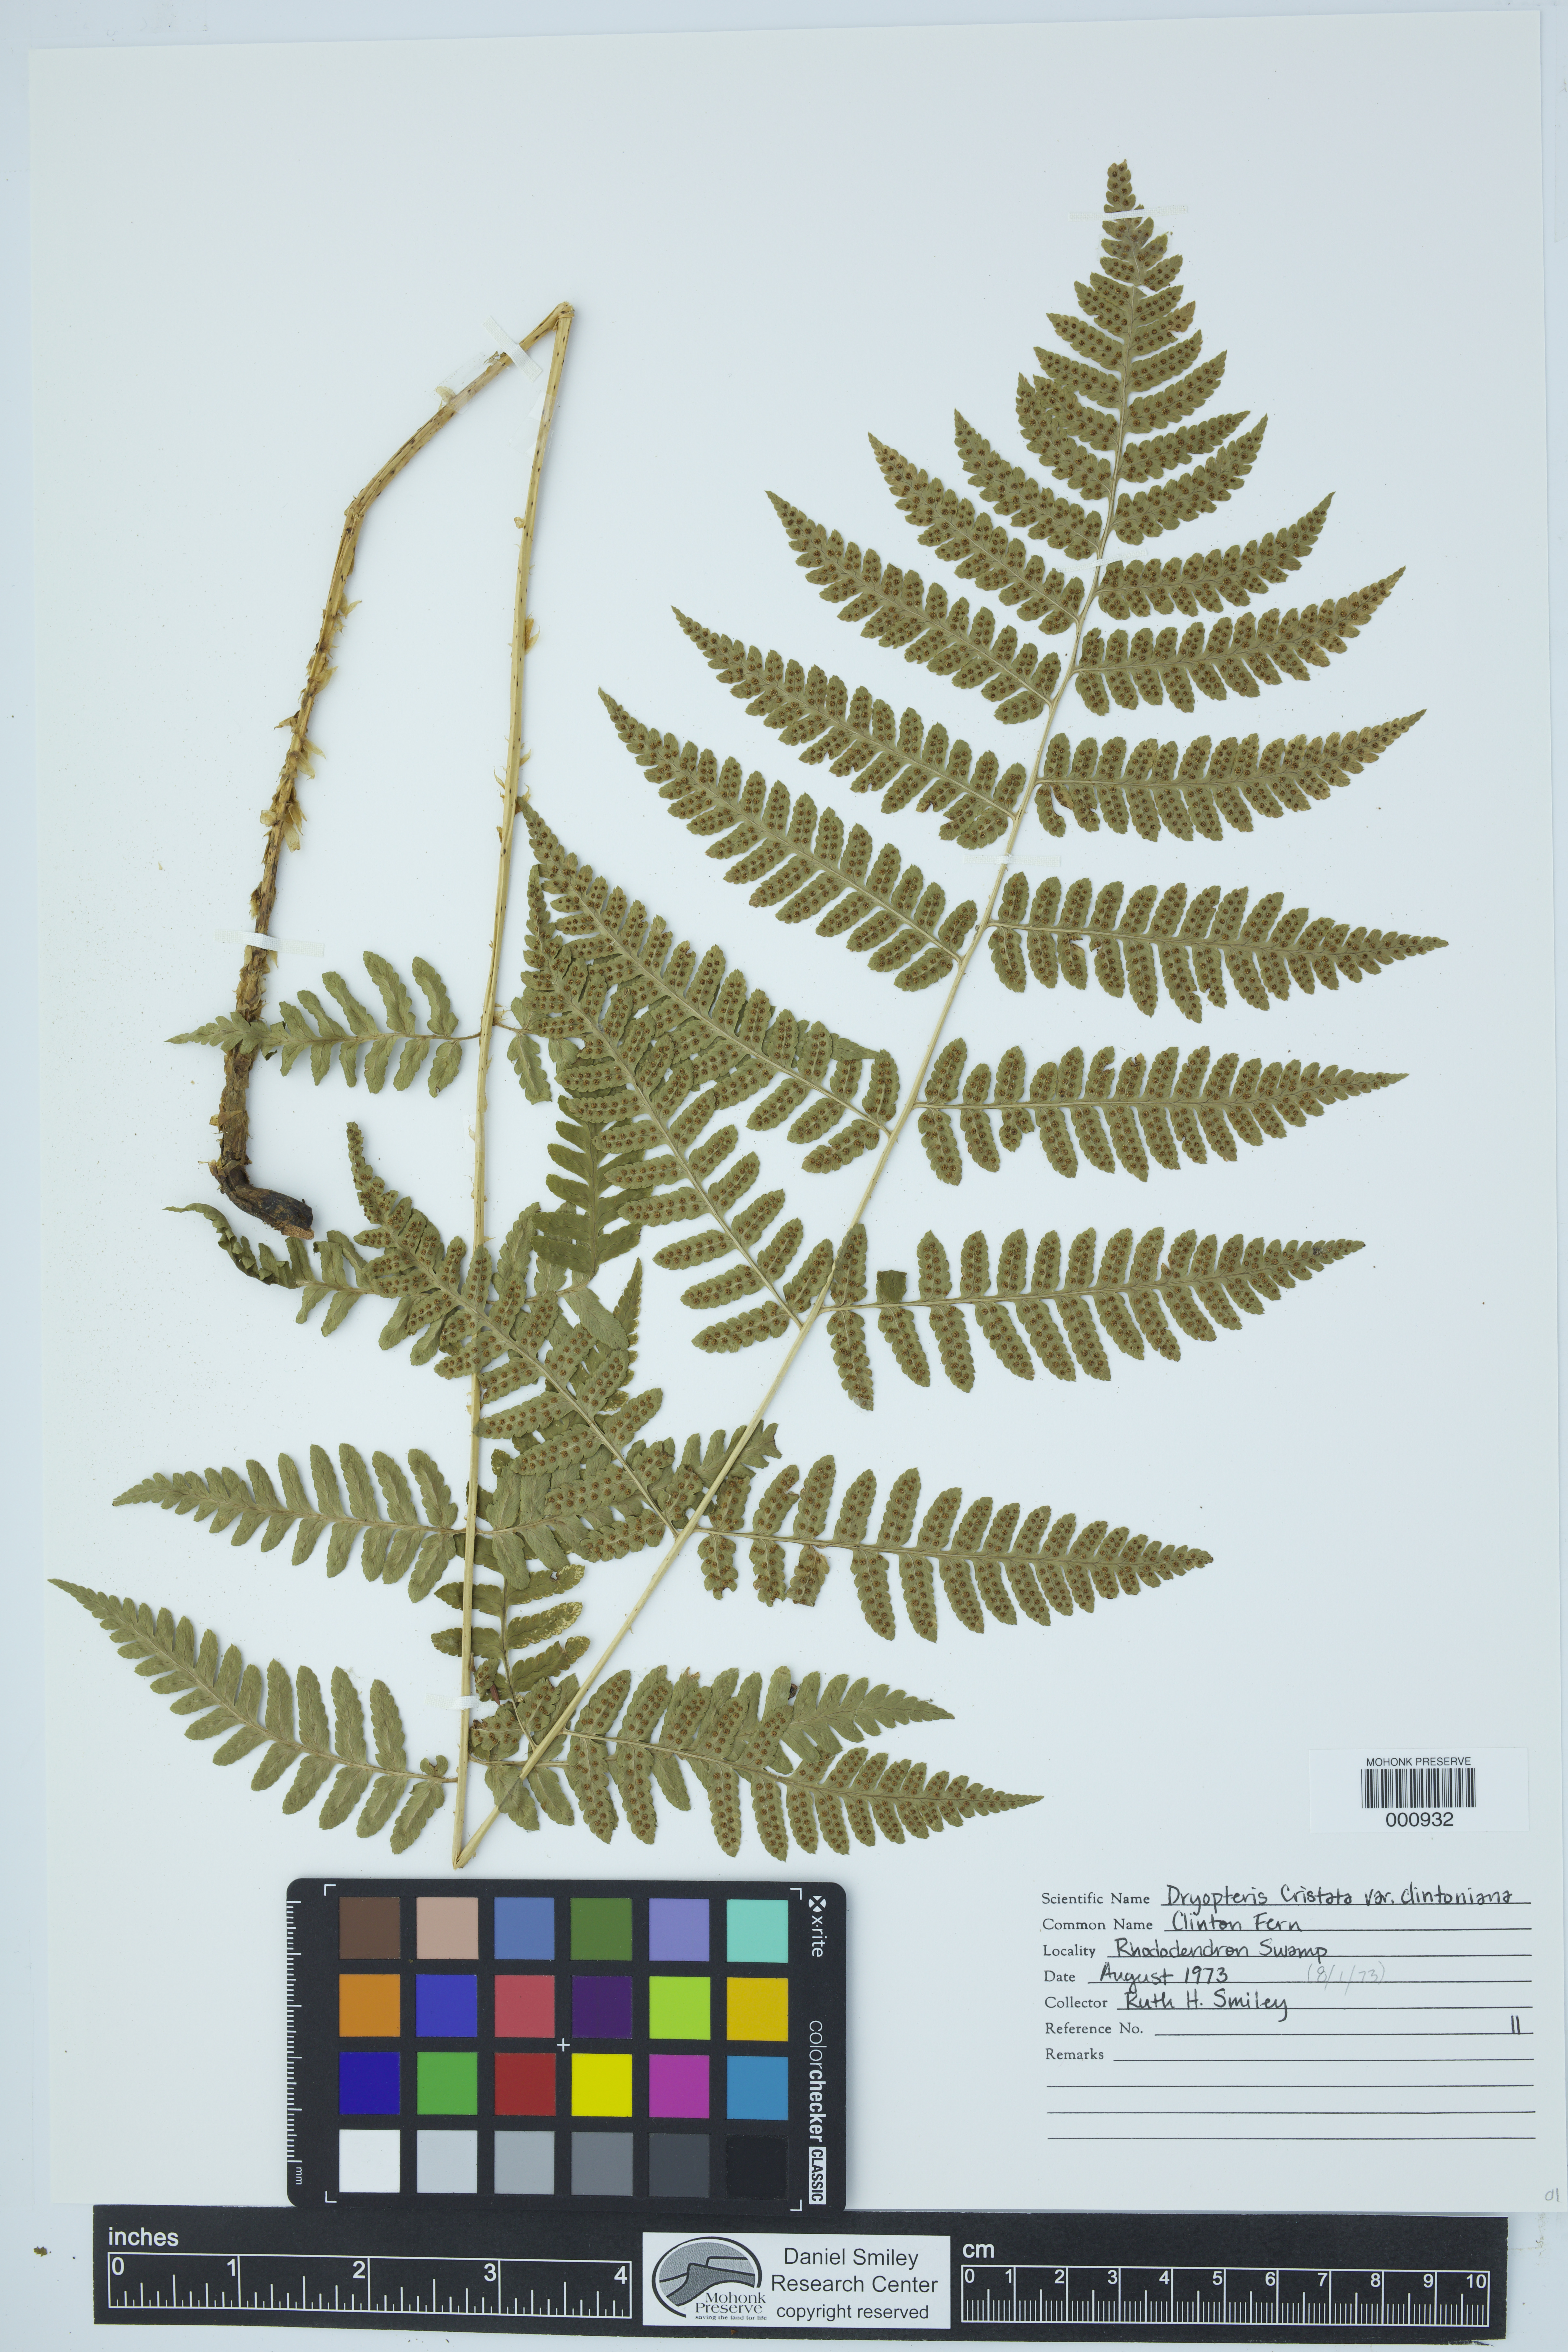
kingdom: Plantae
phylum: Tracheophyta
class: Polypodiopsida
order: Polypodiales
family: Dryopteridaceae
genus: Dryopteris
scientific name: Dryopteris clintoniana
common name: Clinton's wood fern
